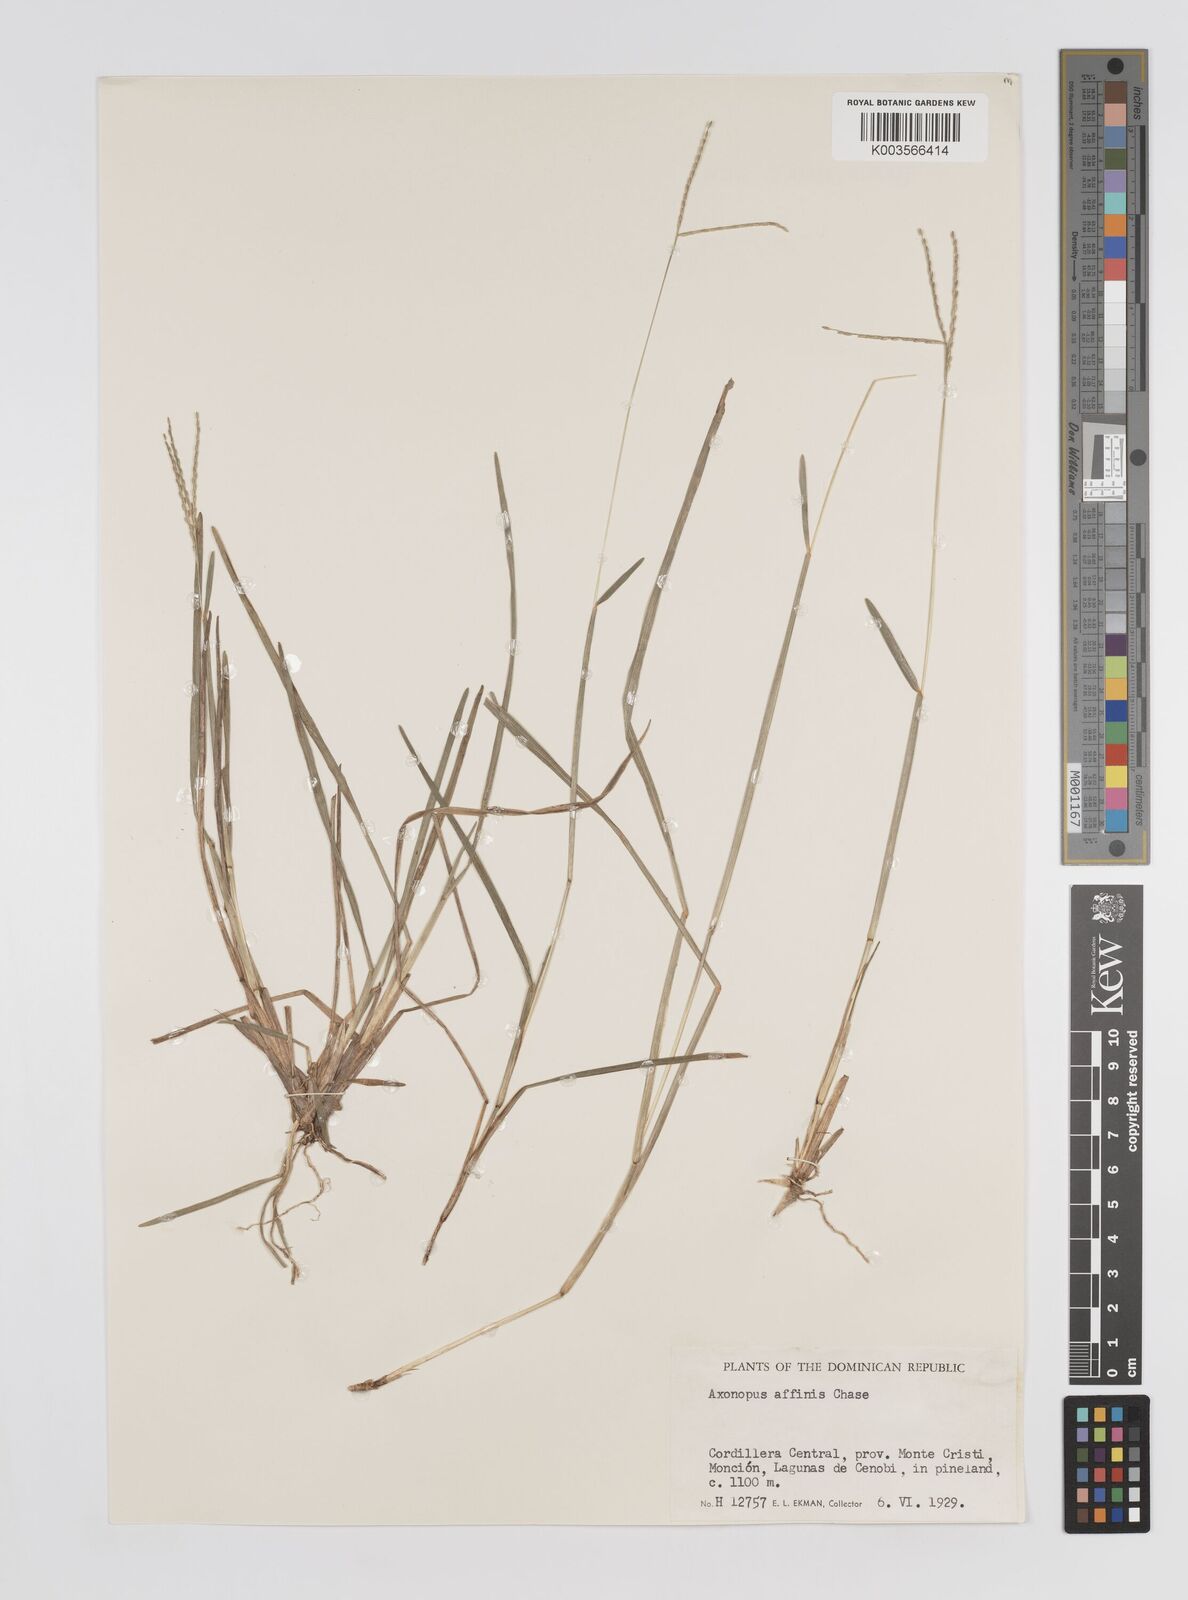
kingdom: Plantae
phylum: Tracheophyta
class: Liliopsida
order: Poales
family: Poaceae
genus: Axonopus
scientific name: Axonopus fissifolius
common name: Common carpetgrass
